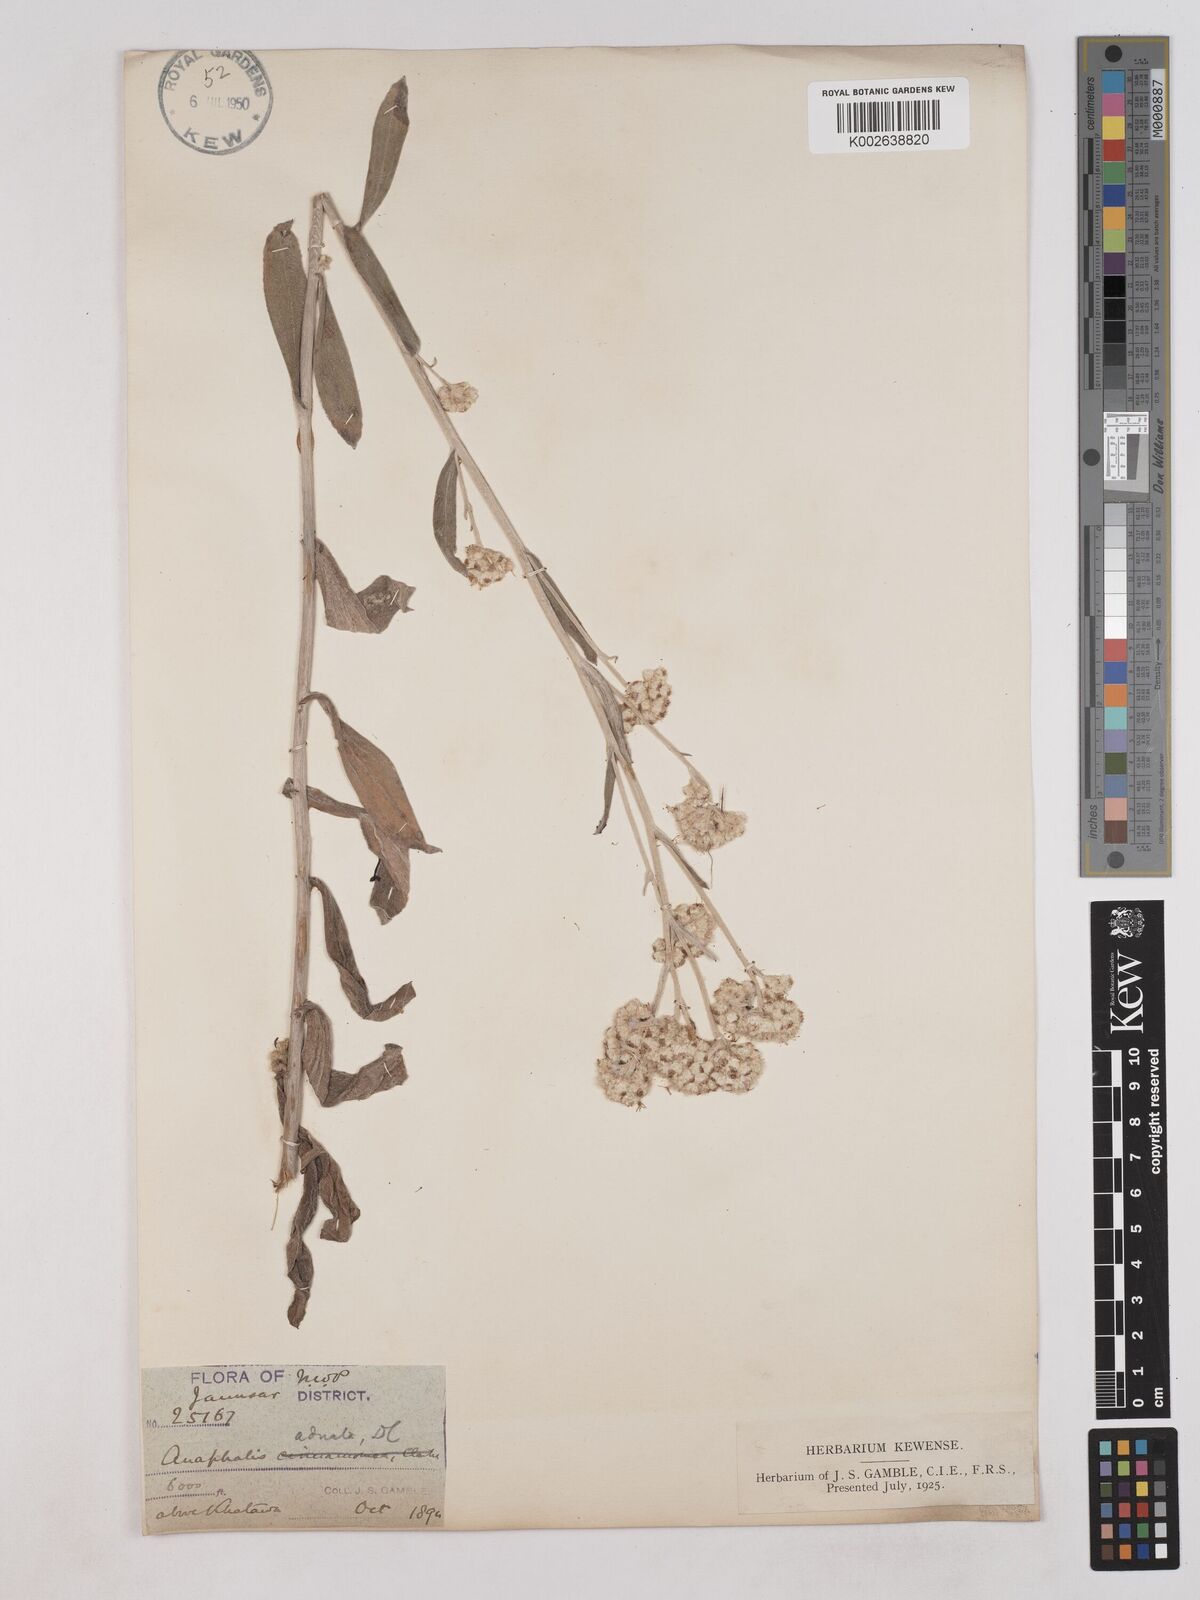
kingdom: Plantae
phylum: Tracheophyta
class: Magnoliopsida
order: Asterales
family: Asteraceae
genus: Pseudognaphalium
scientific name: Pseudognaphalium adnatum
